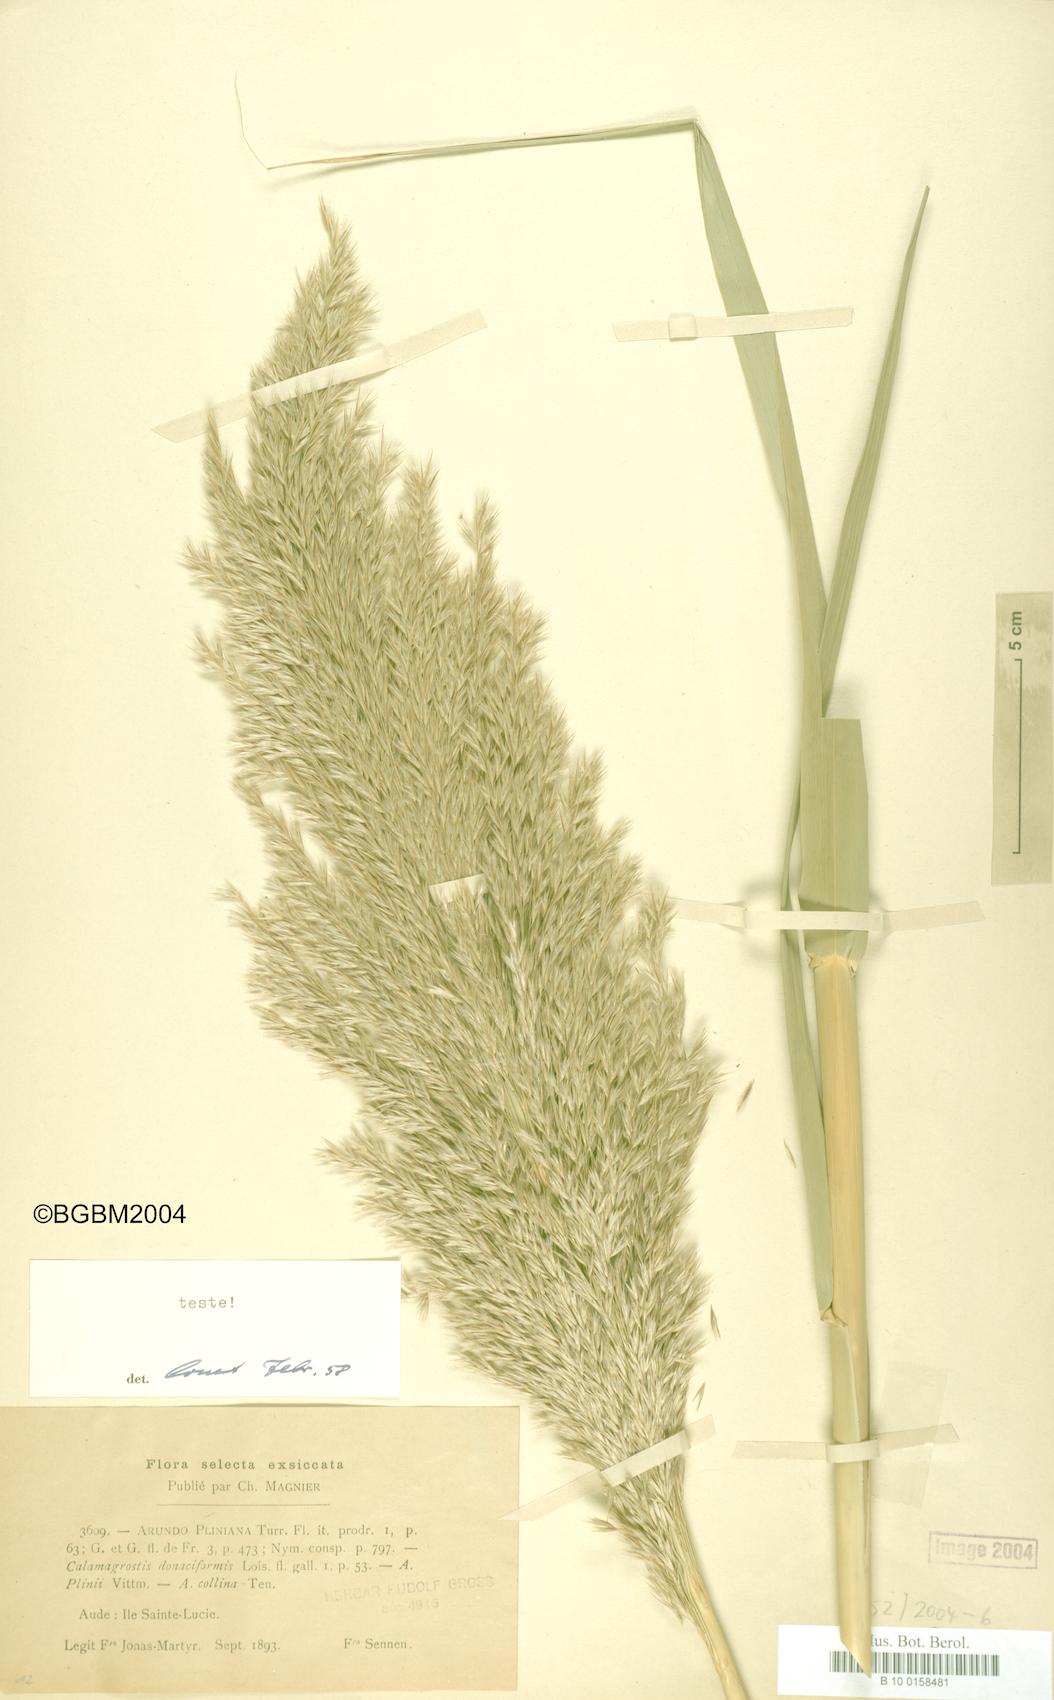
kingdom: Plantae
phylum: Tracheophyta
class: Liliopsida
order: Poales
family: Poaceae
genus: Arundo
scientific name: Arundo plinii
